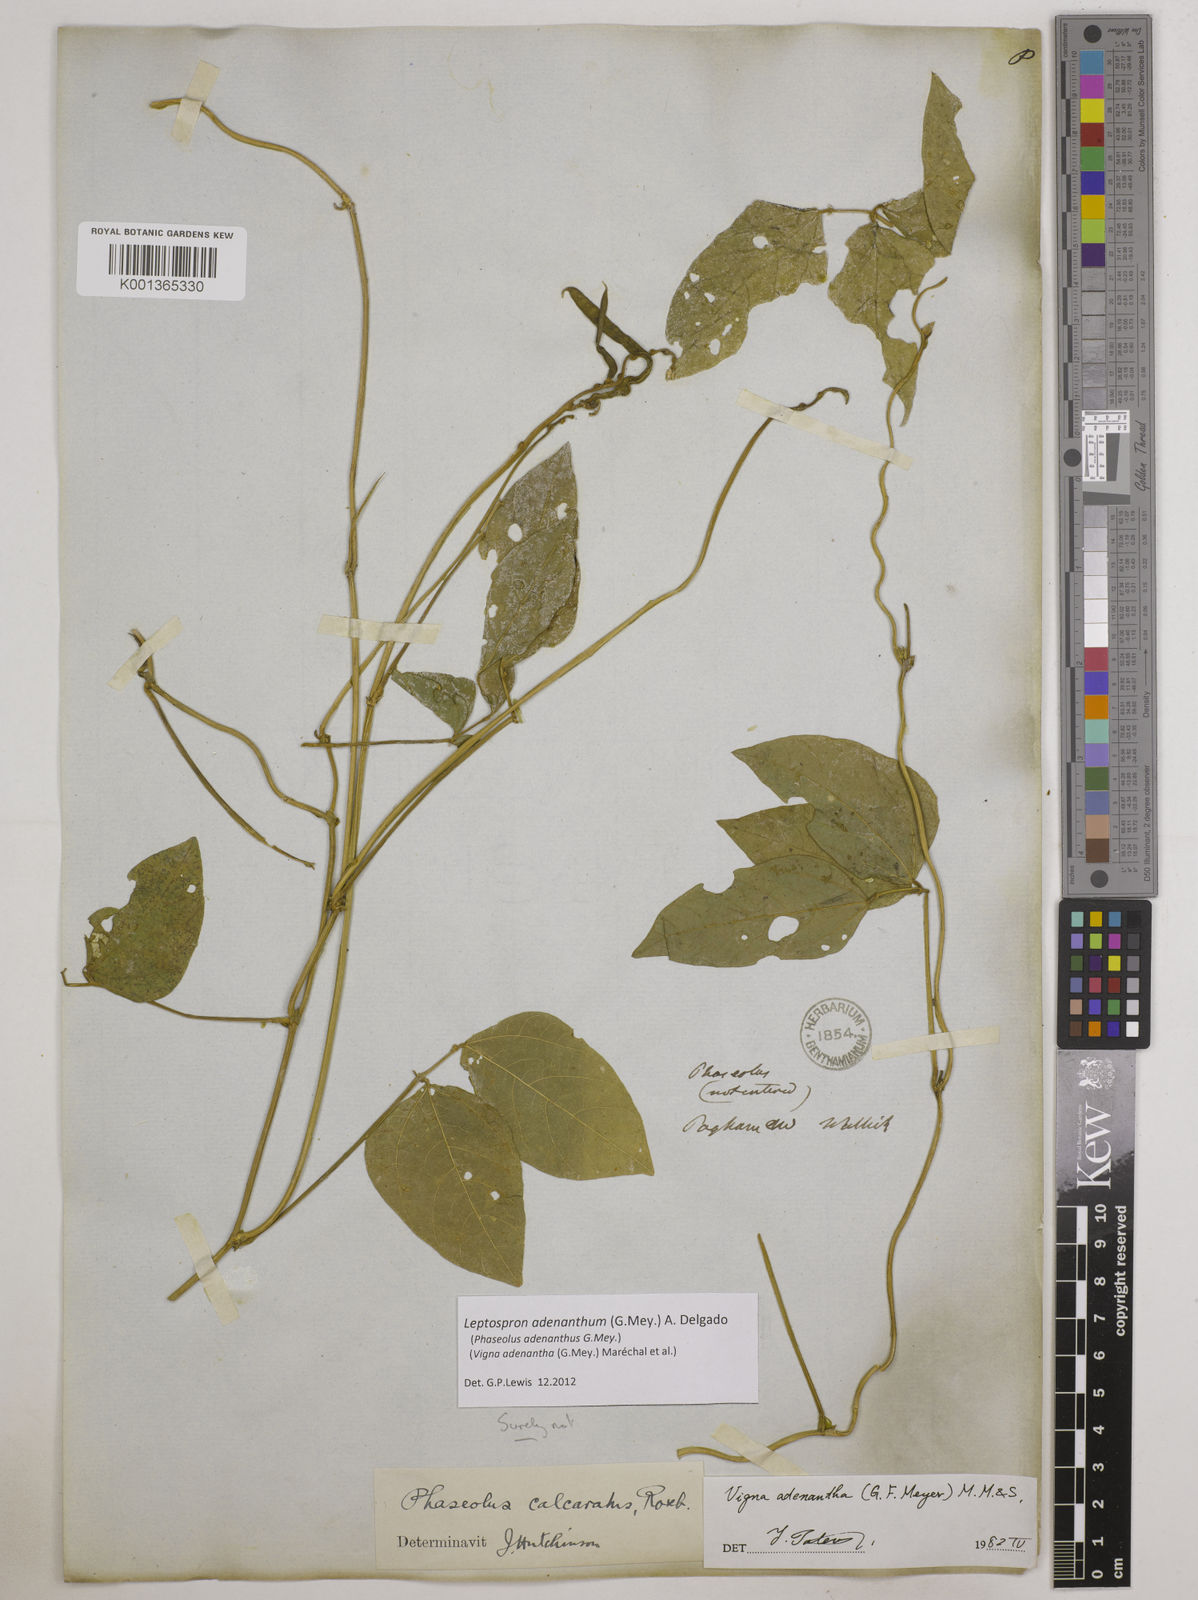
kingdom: Plantae
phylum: Tracheophyta
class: Magnoliopsida
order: Fabales
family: Fabaceae
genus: Leptospron
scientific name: Leptospron adenanthum
